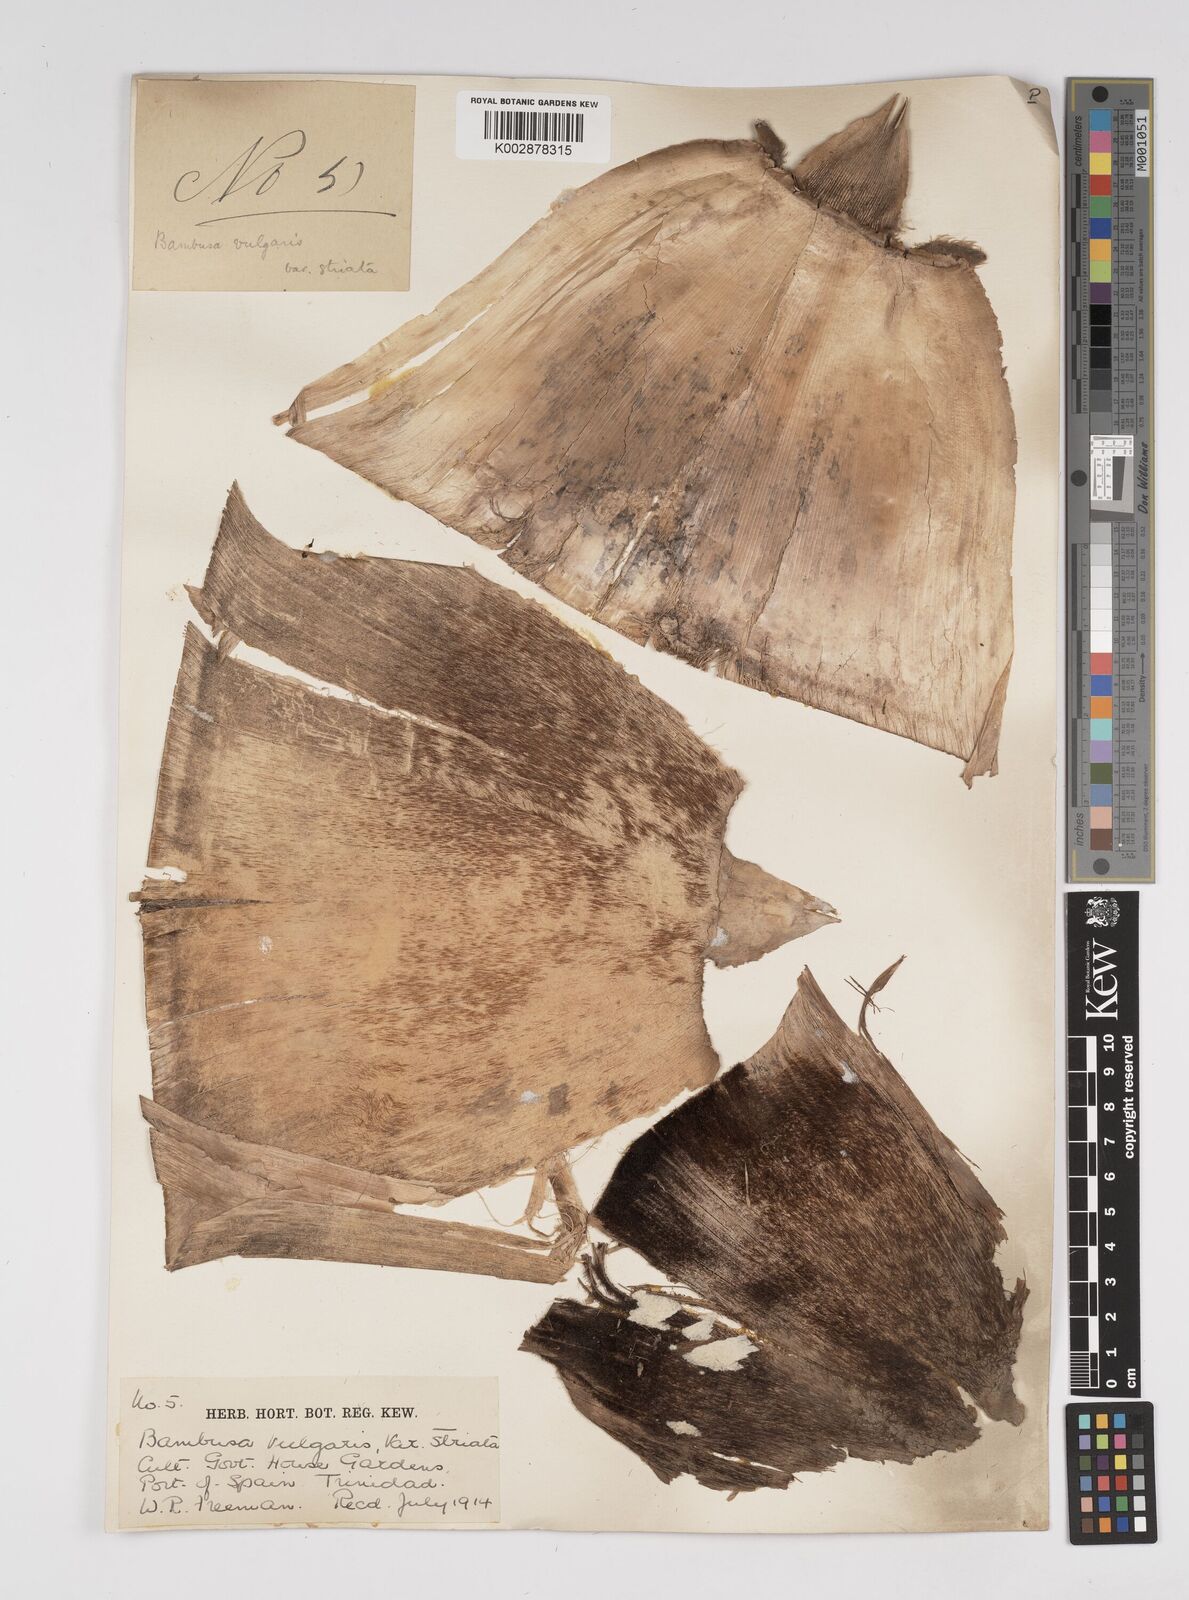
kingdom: Plantae
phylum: Tracheophyta
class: Liliopsida
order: Poales
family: Poaceae
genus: Bambusa
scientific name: Bambusa
